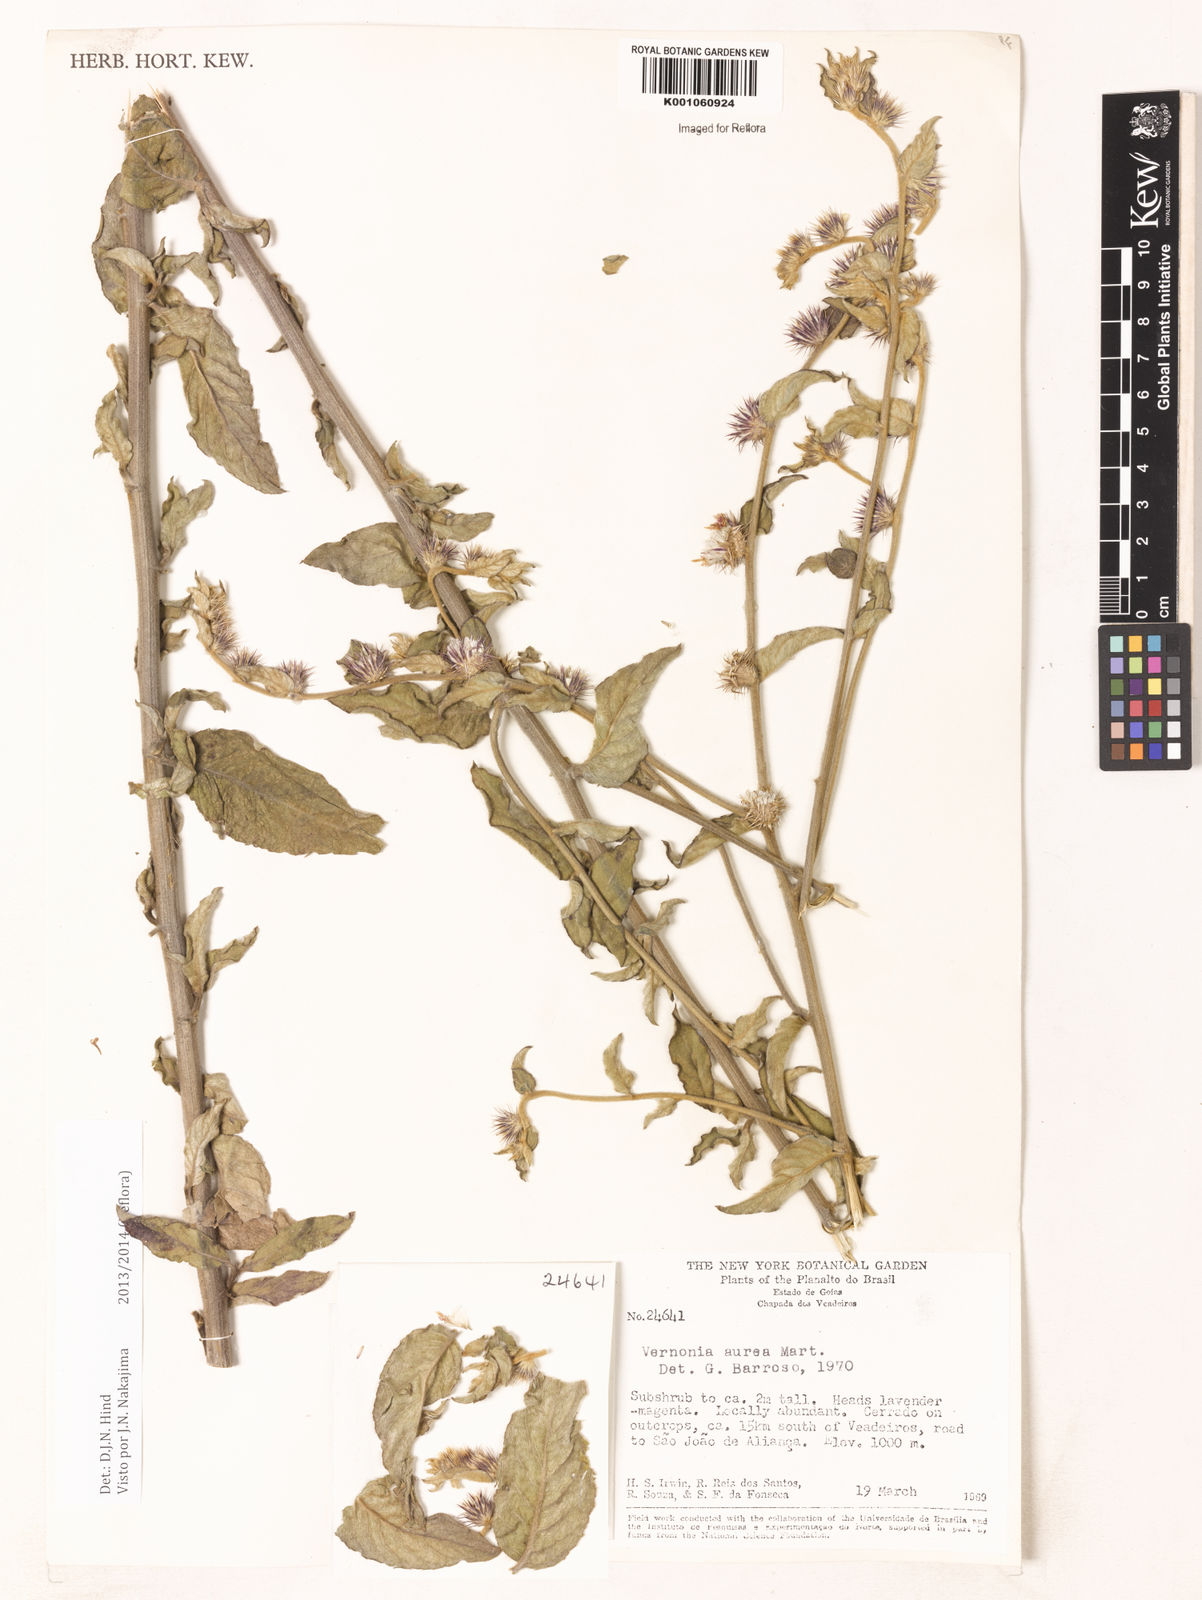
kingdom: Plantae
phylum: Tracheophyta
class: Magnoliopsida
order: Asterales
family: Asteraceae
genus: Lepidaploa
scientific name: Lepidaploa aurea
